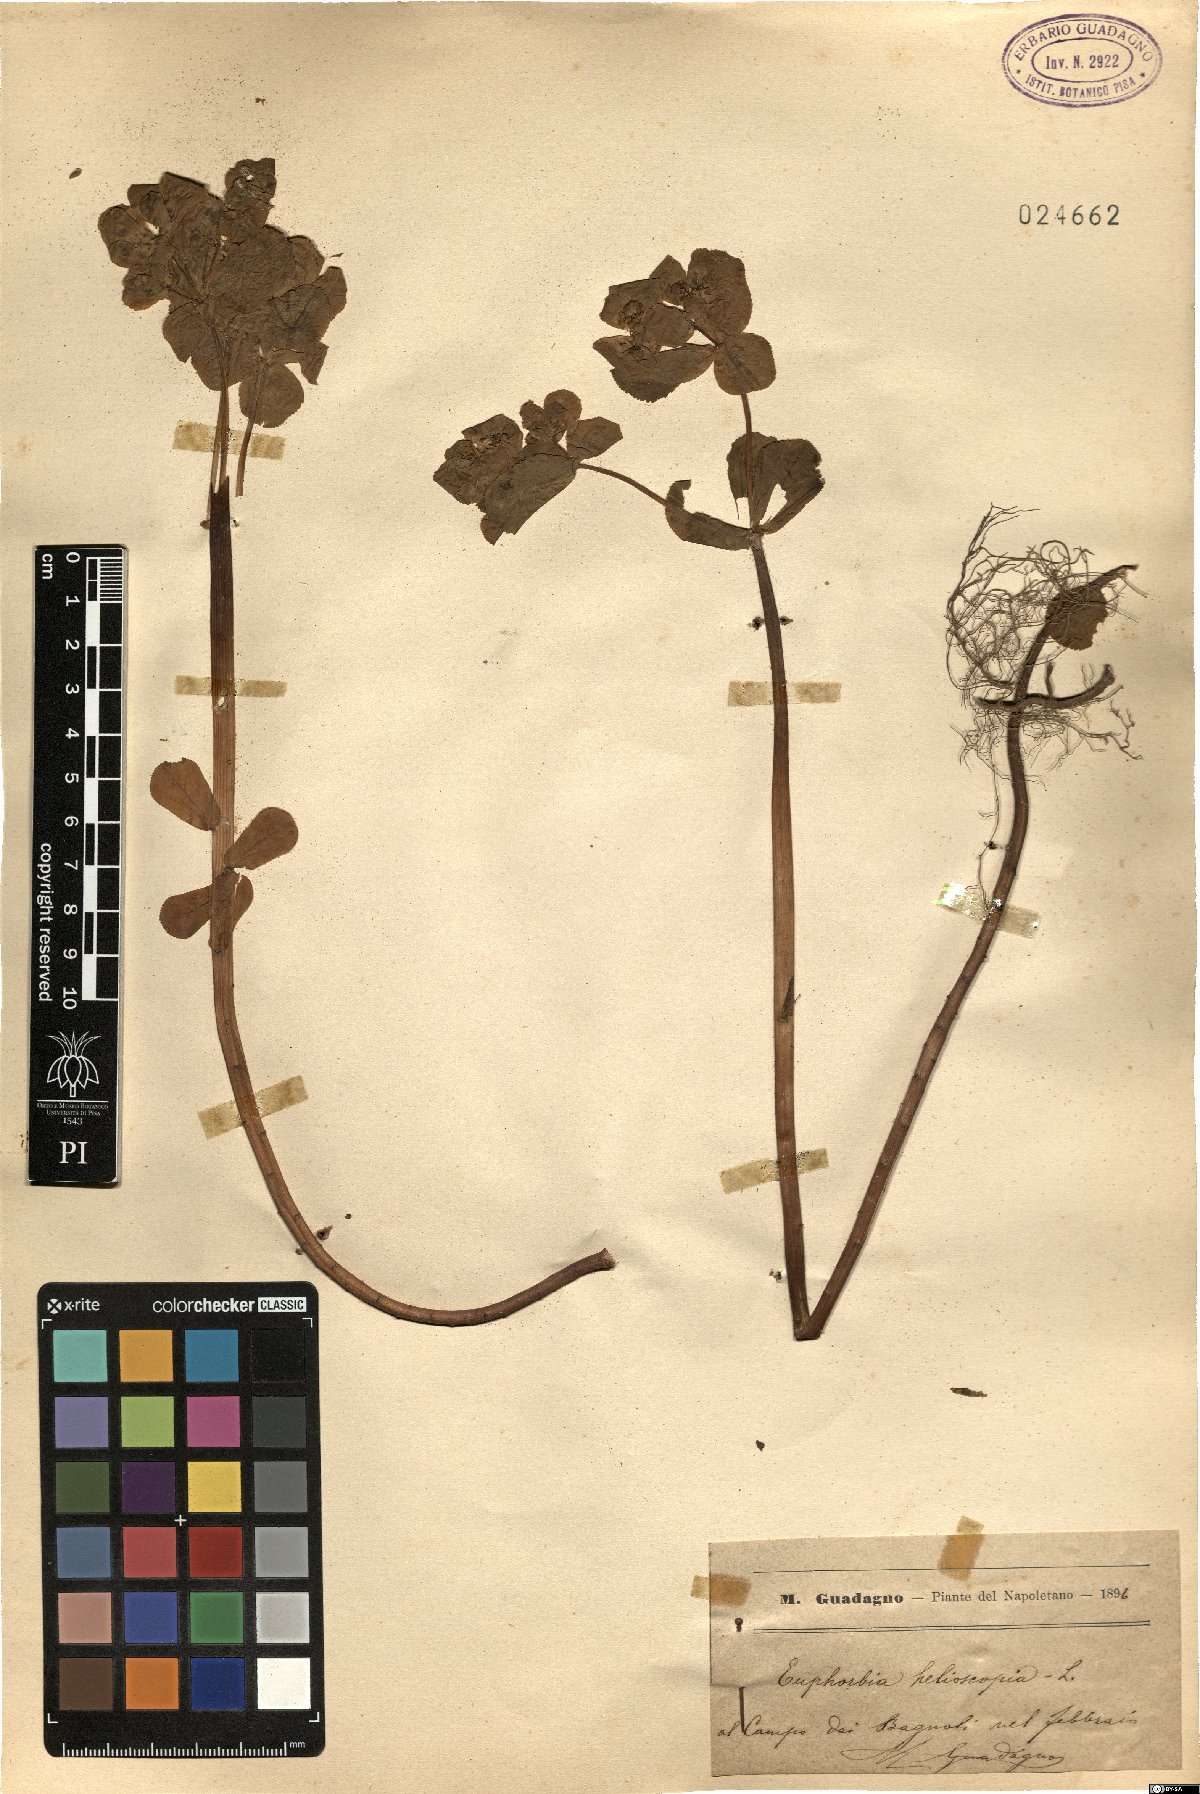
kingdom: Plantae
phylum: Tracheophyta
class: Magnoliopsida
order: Malpighiales
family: Euphorbiaceae
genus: Euphorbia
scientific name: Euphorbia helioscopia
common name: Sun spurge
